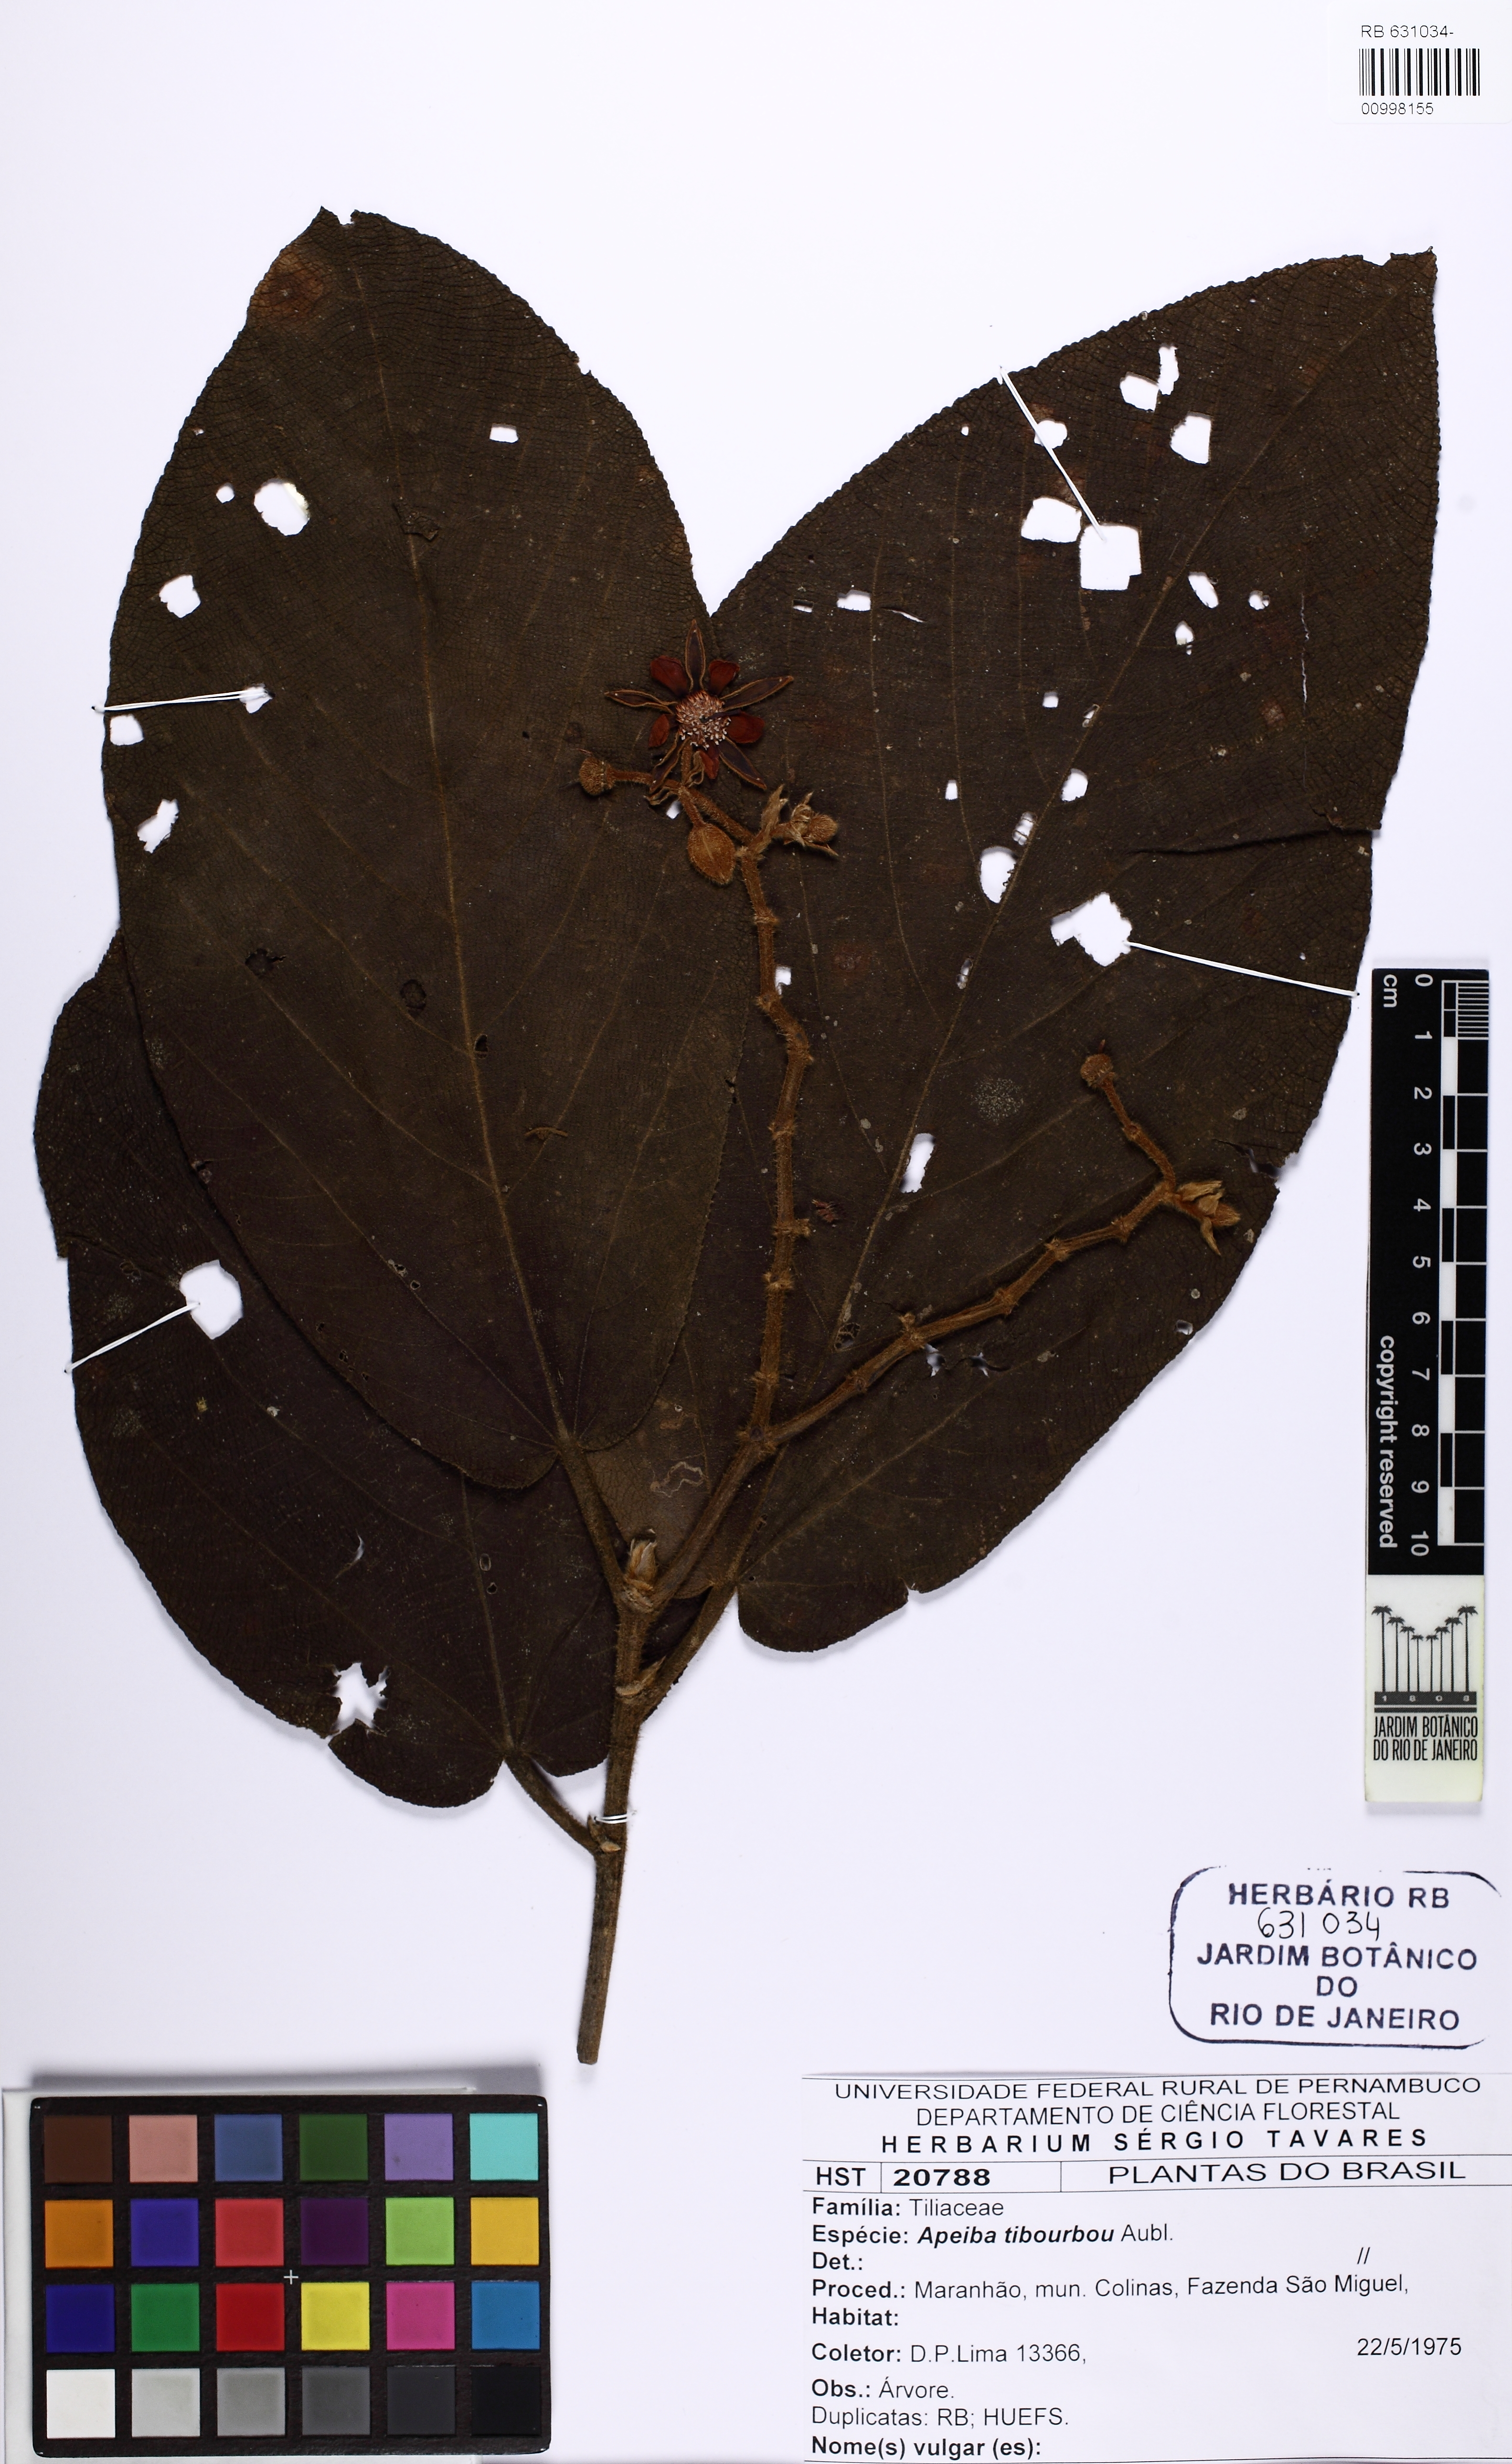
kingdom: Plantae
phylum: Tracheophyta
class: Magnoliopsida
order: Malvales
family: Malvaceae
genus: Apeiba
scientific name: Apeiba tibourbou
